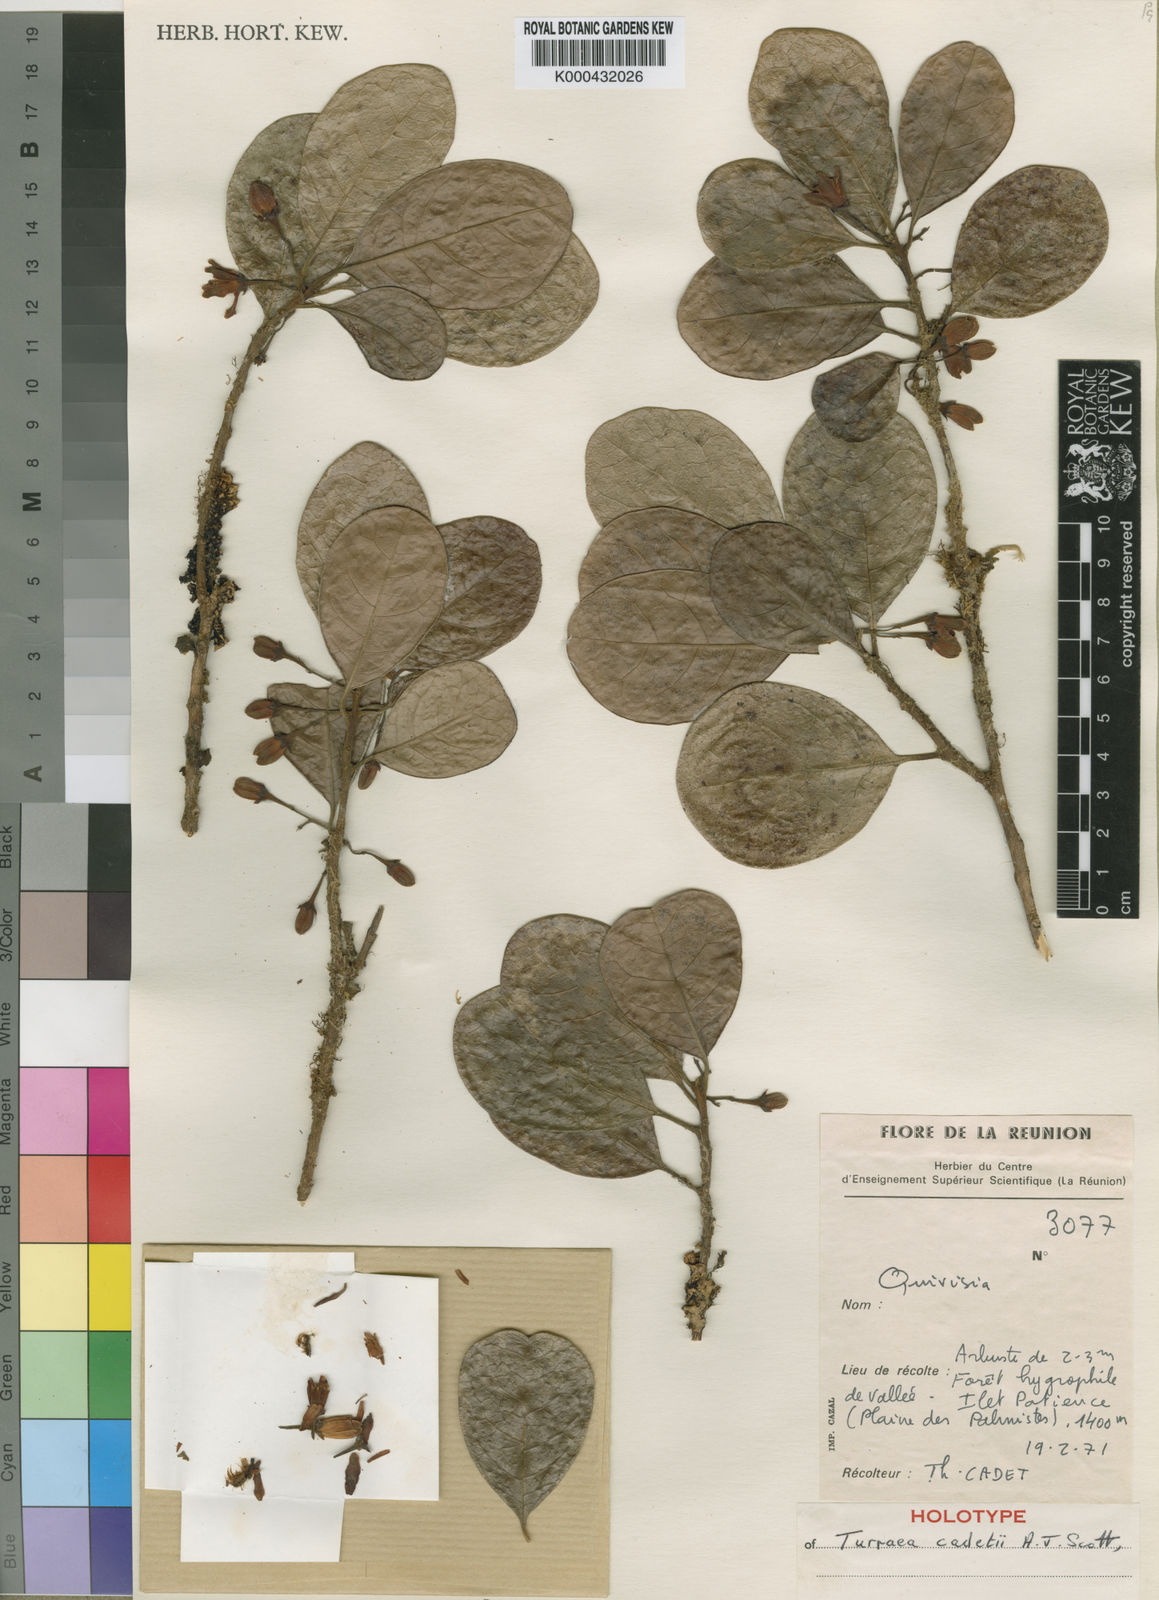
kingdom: Plantae
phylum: Tracheophyta
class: Magnoliopsida
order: Sapindales
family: Meliaceae
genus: Turraea
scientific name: Turraea cadetii
